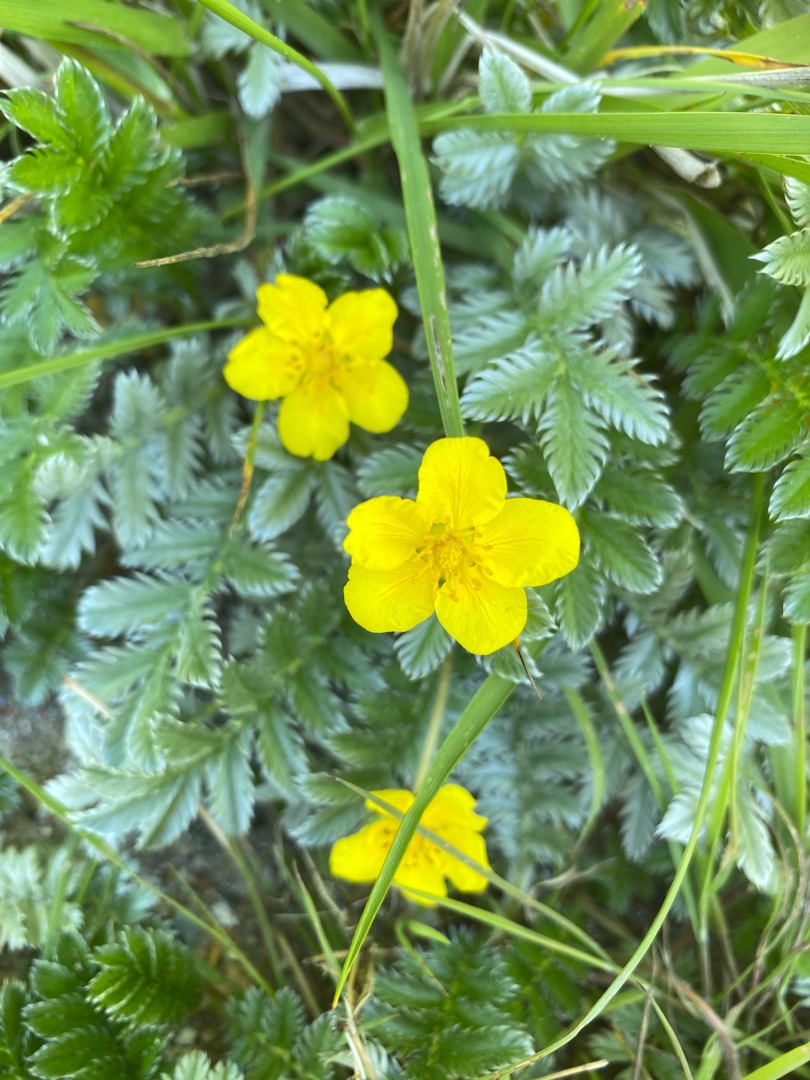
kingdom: Plantae
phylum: Tracheophyta
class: Magnoliopsida
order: Rosales
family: Rosaceae
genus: Argentina
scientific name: Argentina anserina
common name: Gåsepotentil
